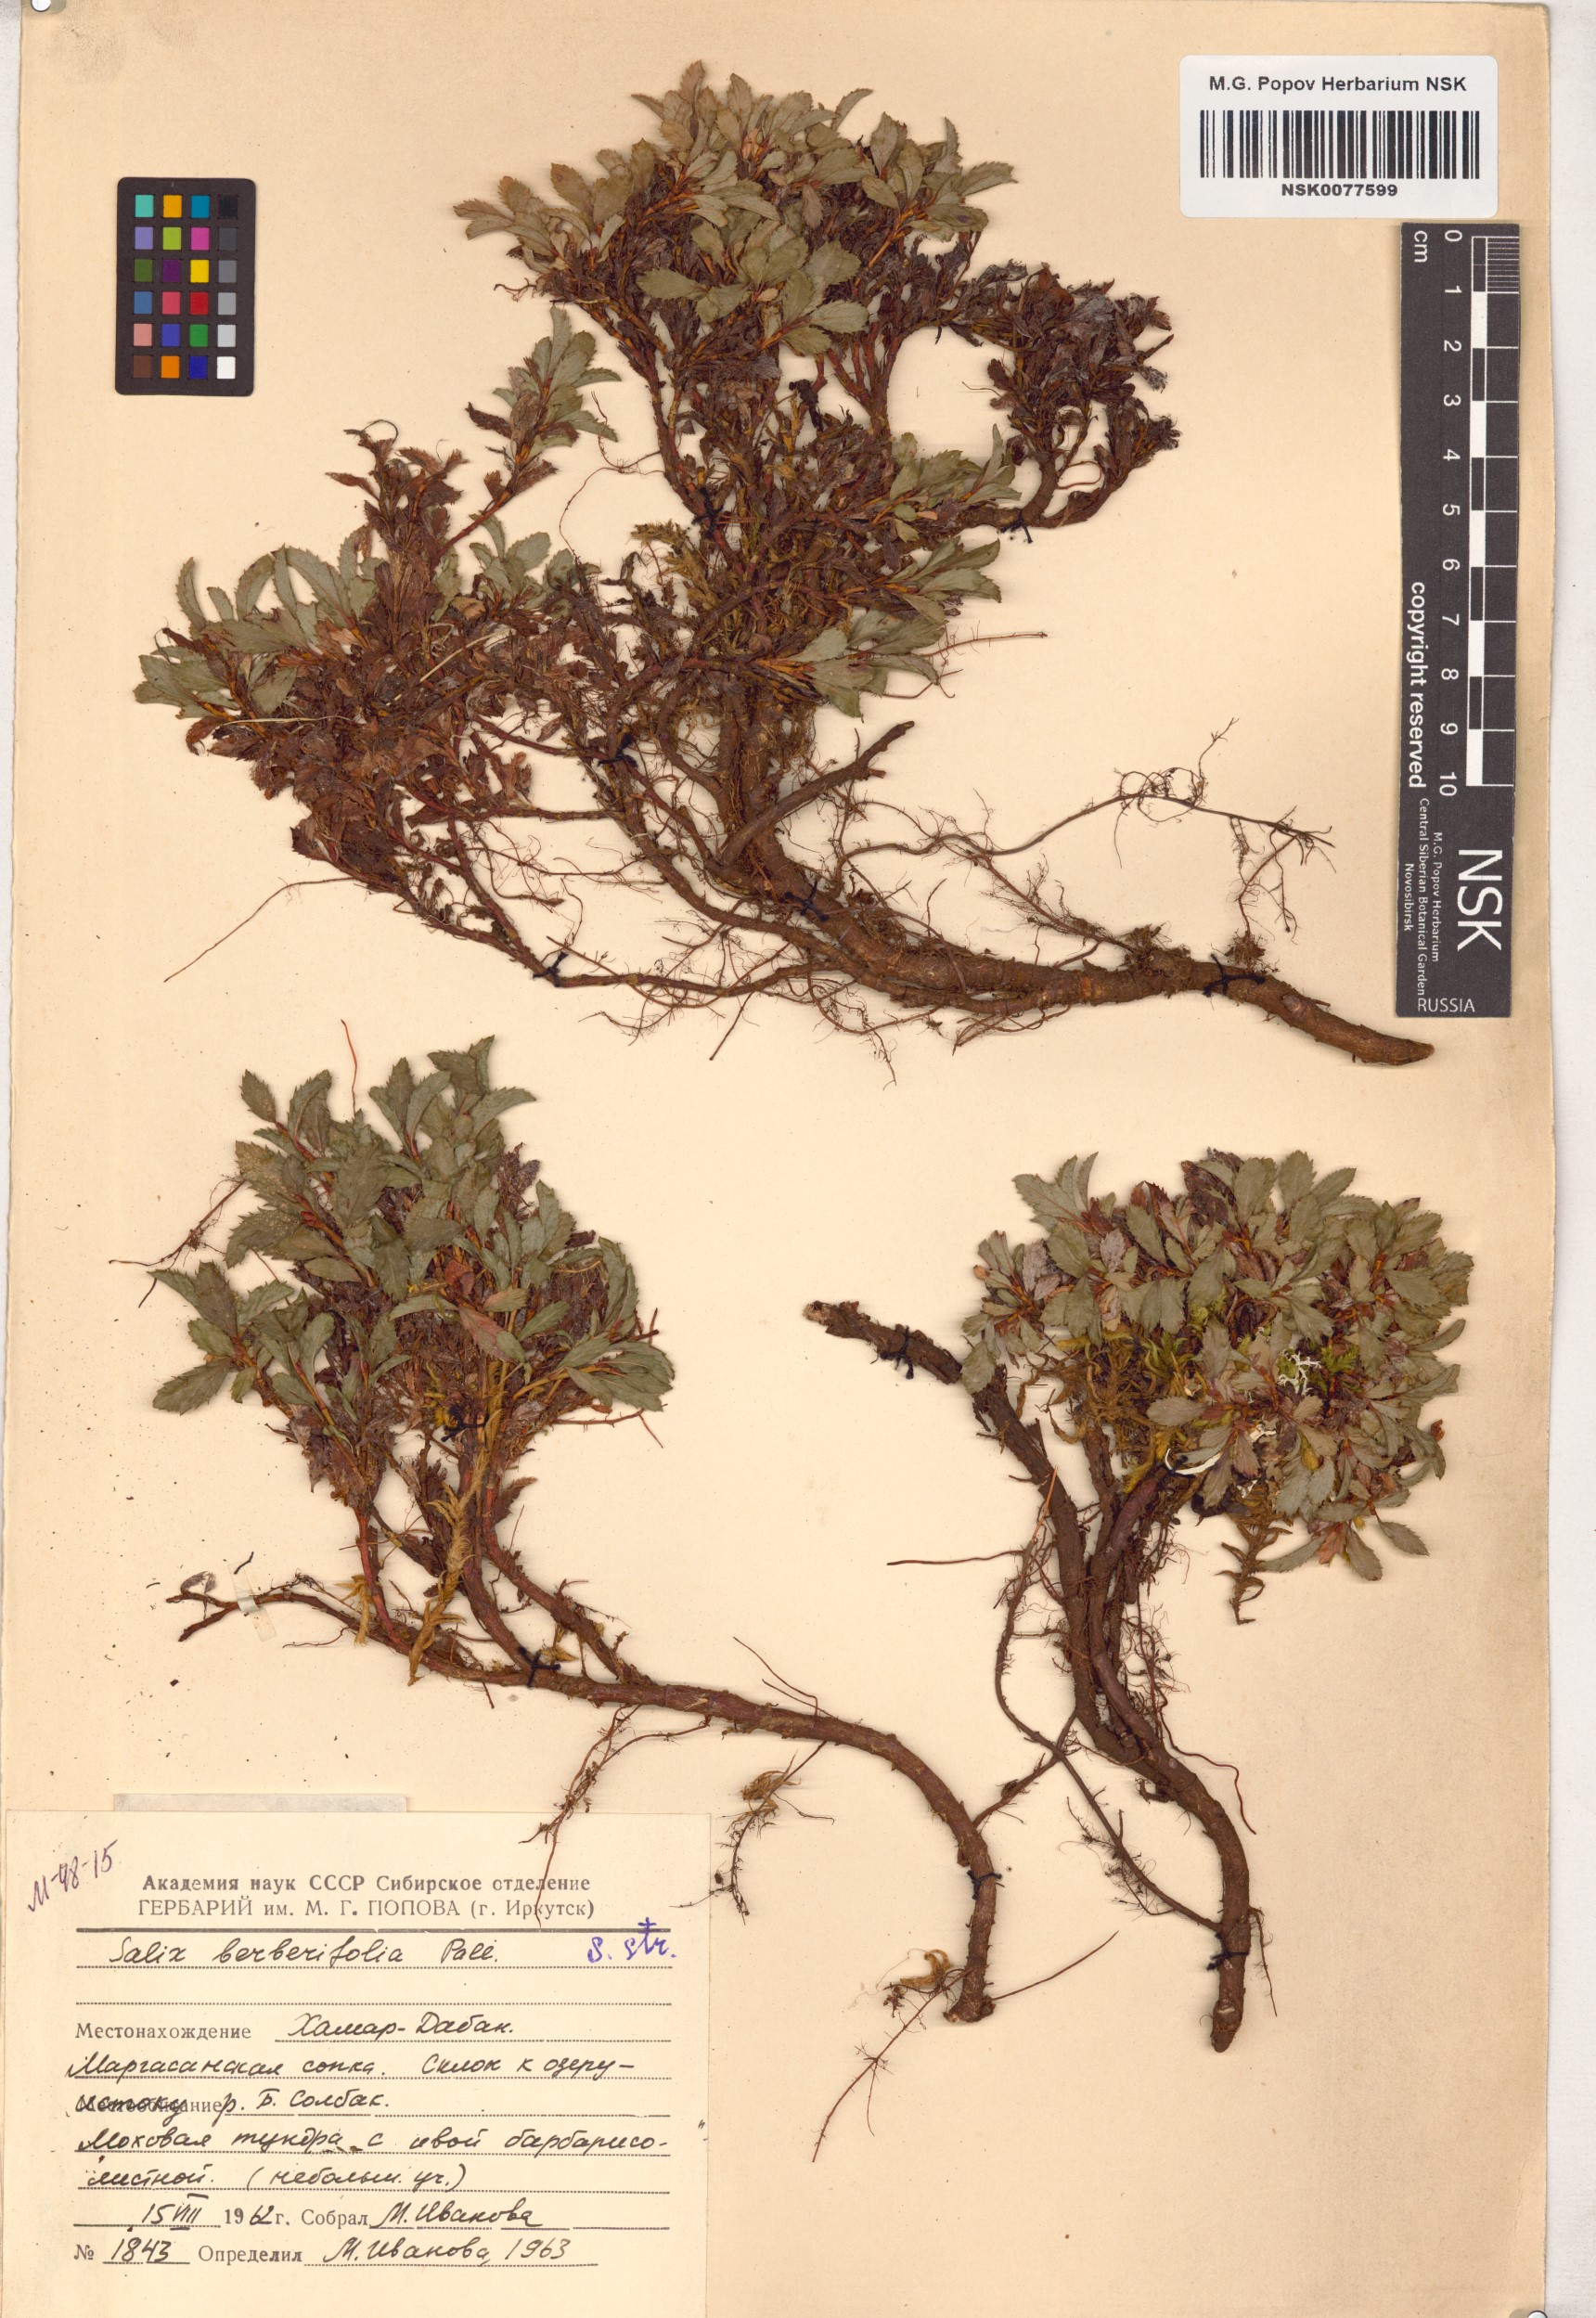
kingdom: Plantae
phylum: Tracheophyta
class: Magnoliopsida
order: Malpighiales
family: Salicaceae
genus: Salix
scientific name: Salix berberifolia
